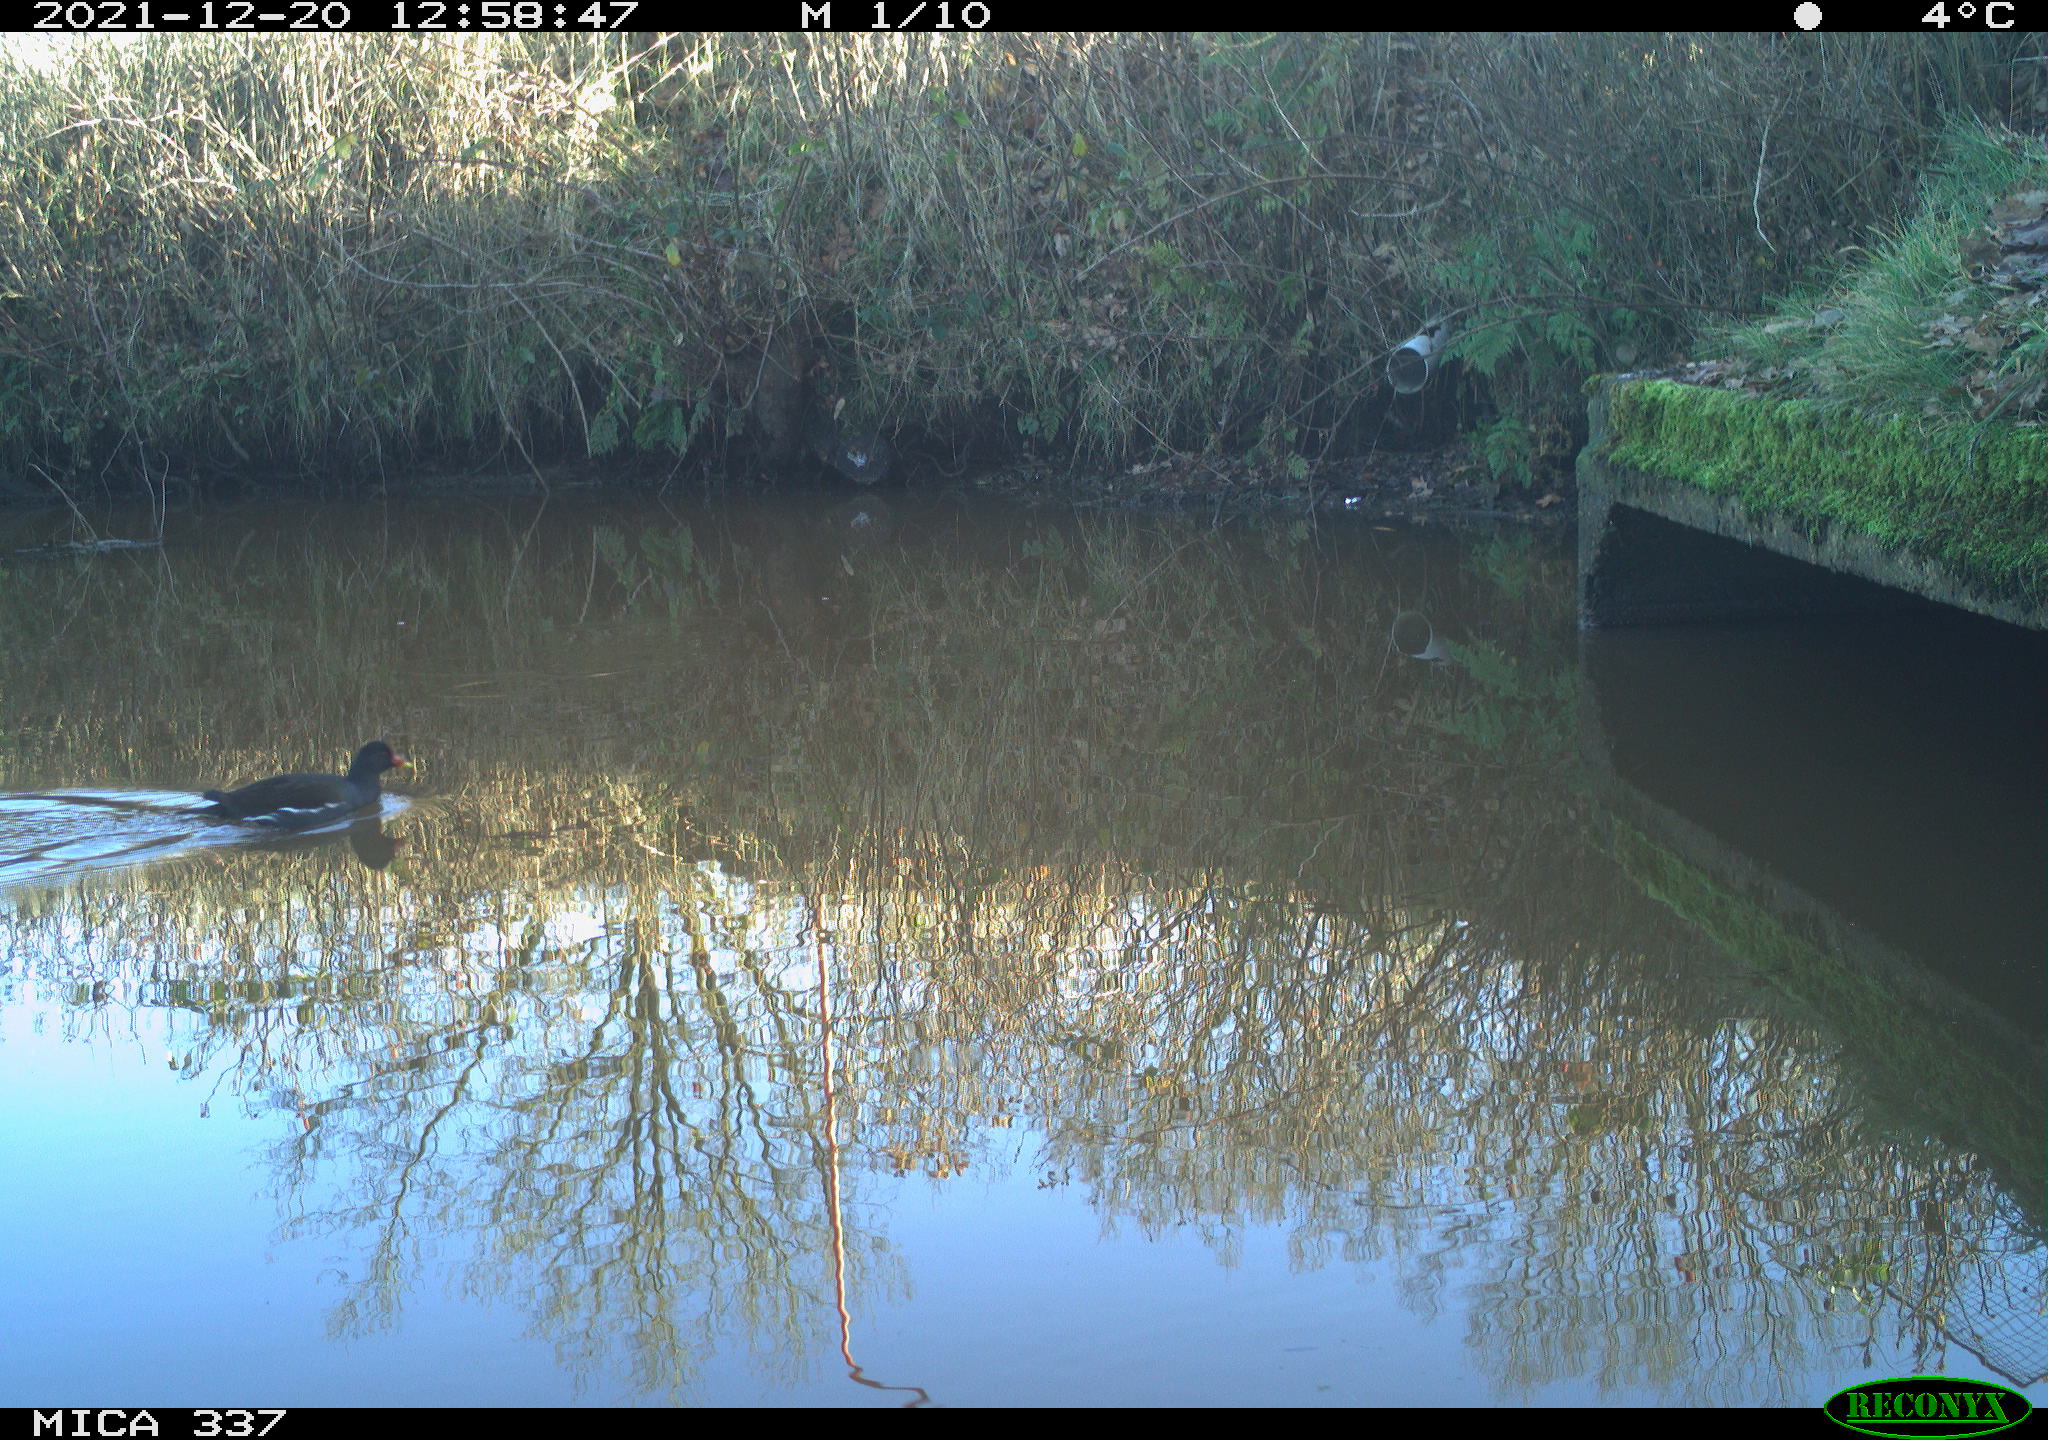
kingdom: Animalia
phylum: Chordata
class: Aves
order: Gruiformes
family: Rallidae
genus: Gallinula
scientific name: Gallinula chloropus
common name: Common moorhen
